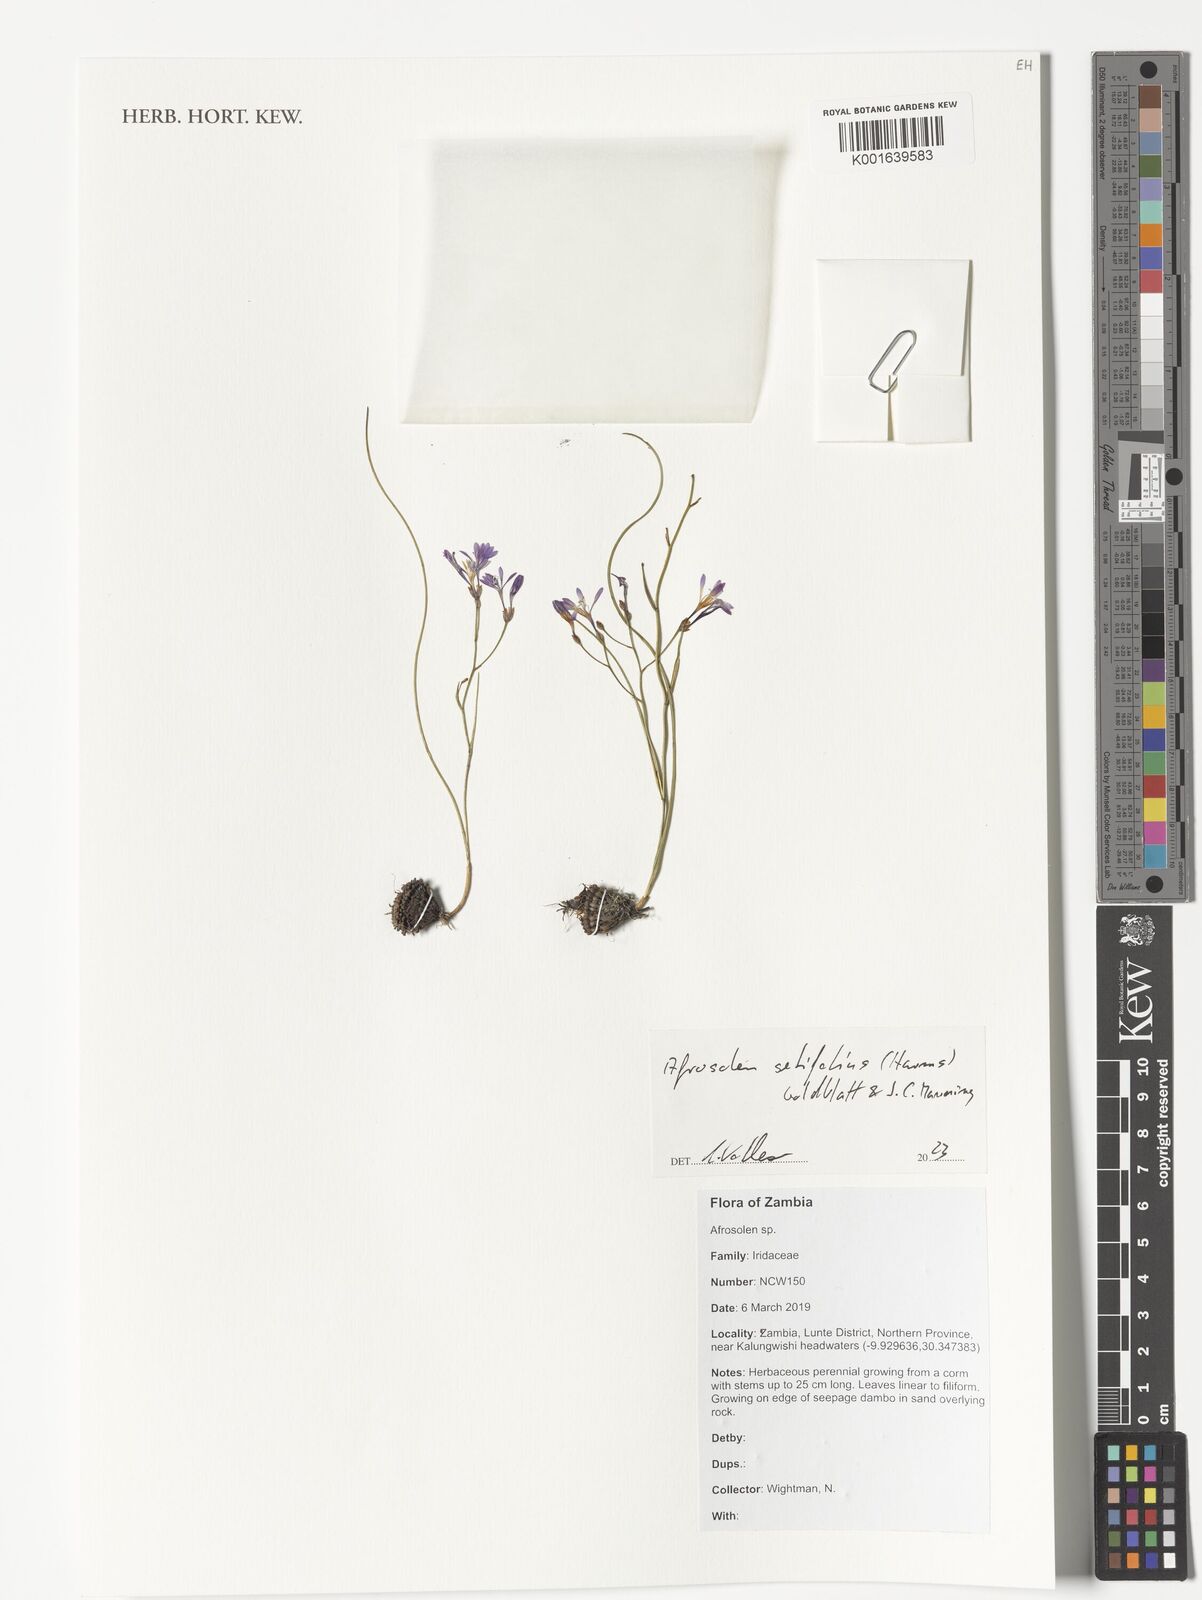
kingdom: Plantae
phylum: Tracheophyta
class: Liliopsida
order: Asparagales
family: Iridaceae
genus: Afrosolen
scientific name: Afrosolen setifolius
